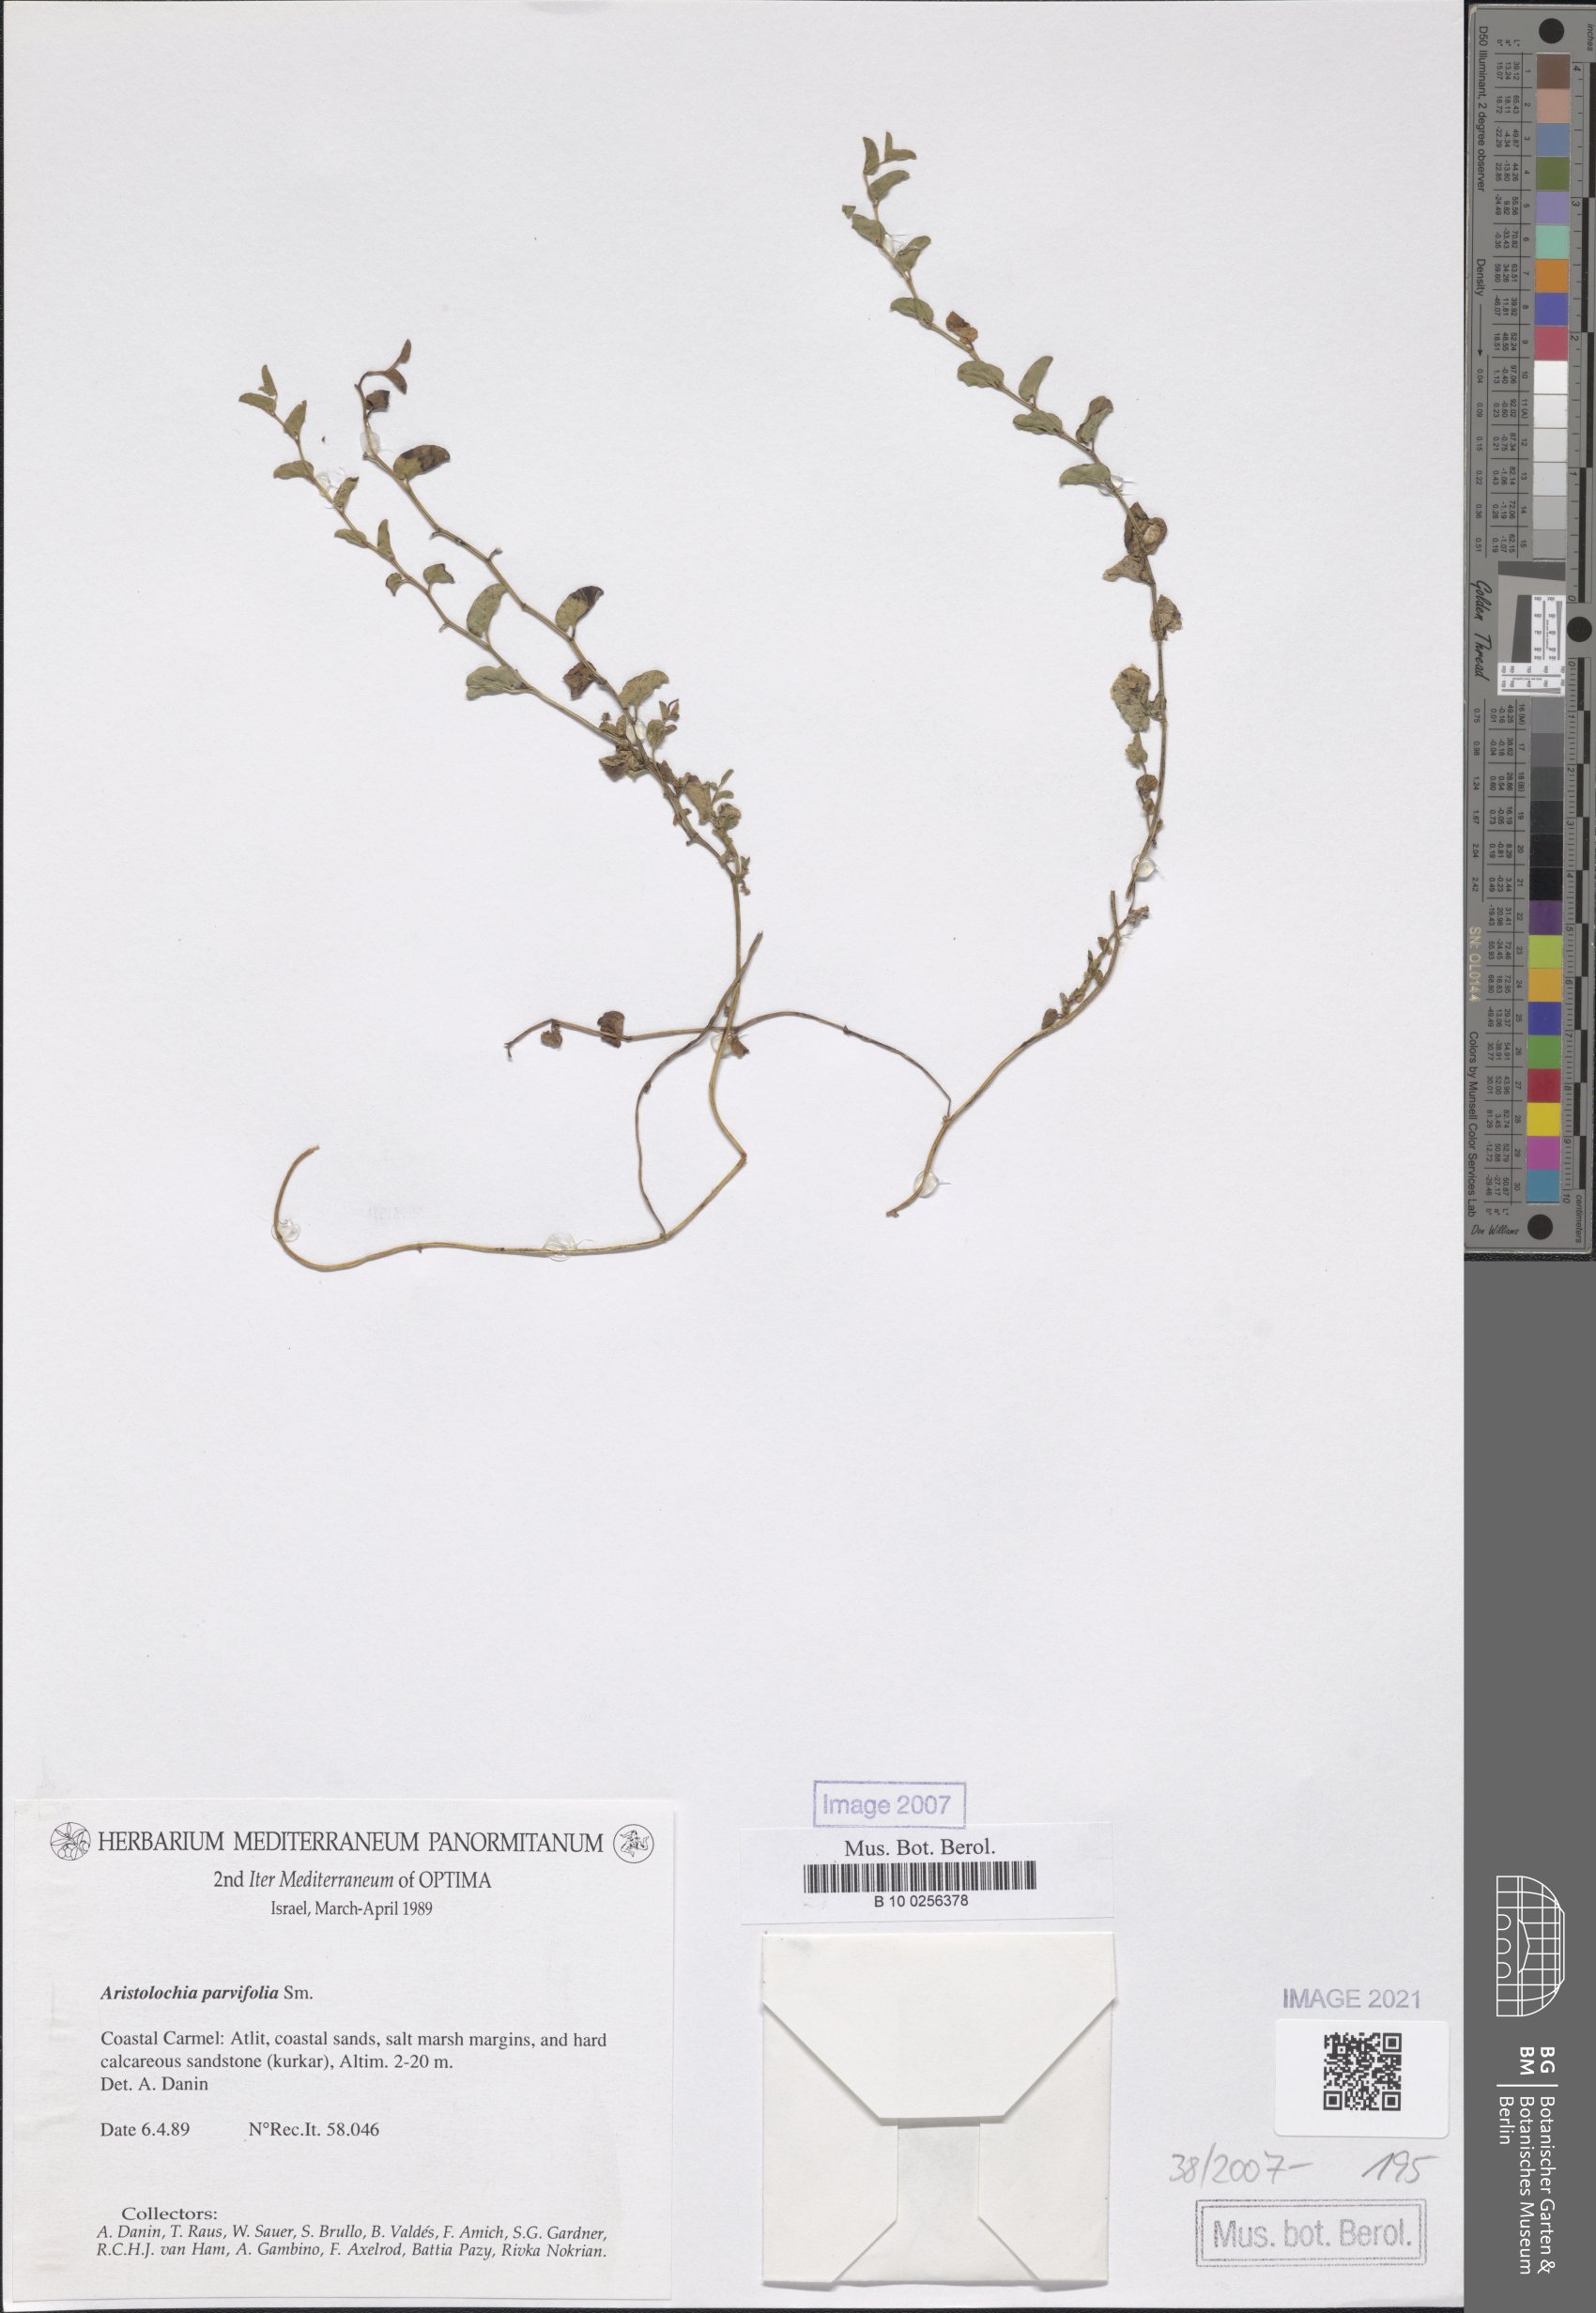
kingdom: Plantae
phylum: Tracheophyta
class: Magnoliopsida
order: Piperales
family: Aristolochiaceae
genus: Aristolochia
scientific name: Aristolochia parvifolia
